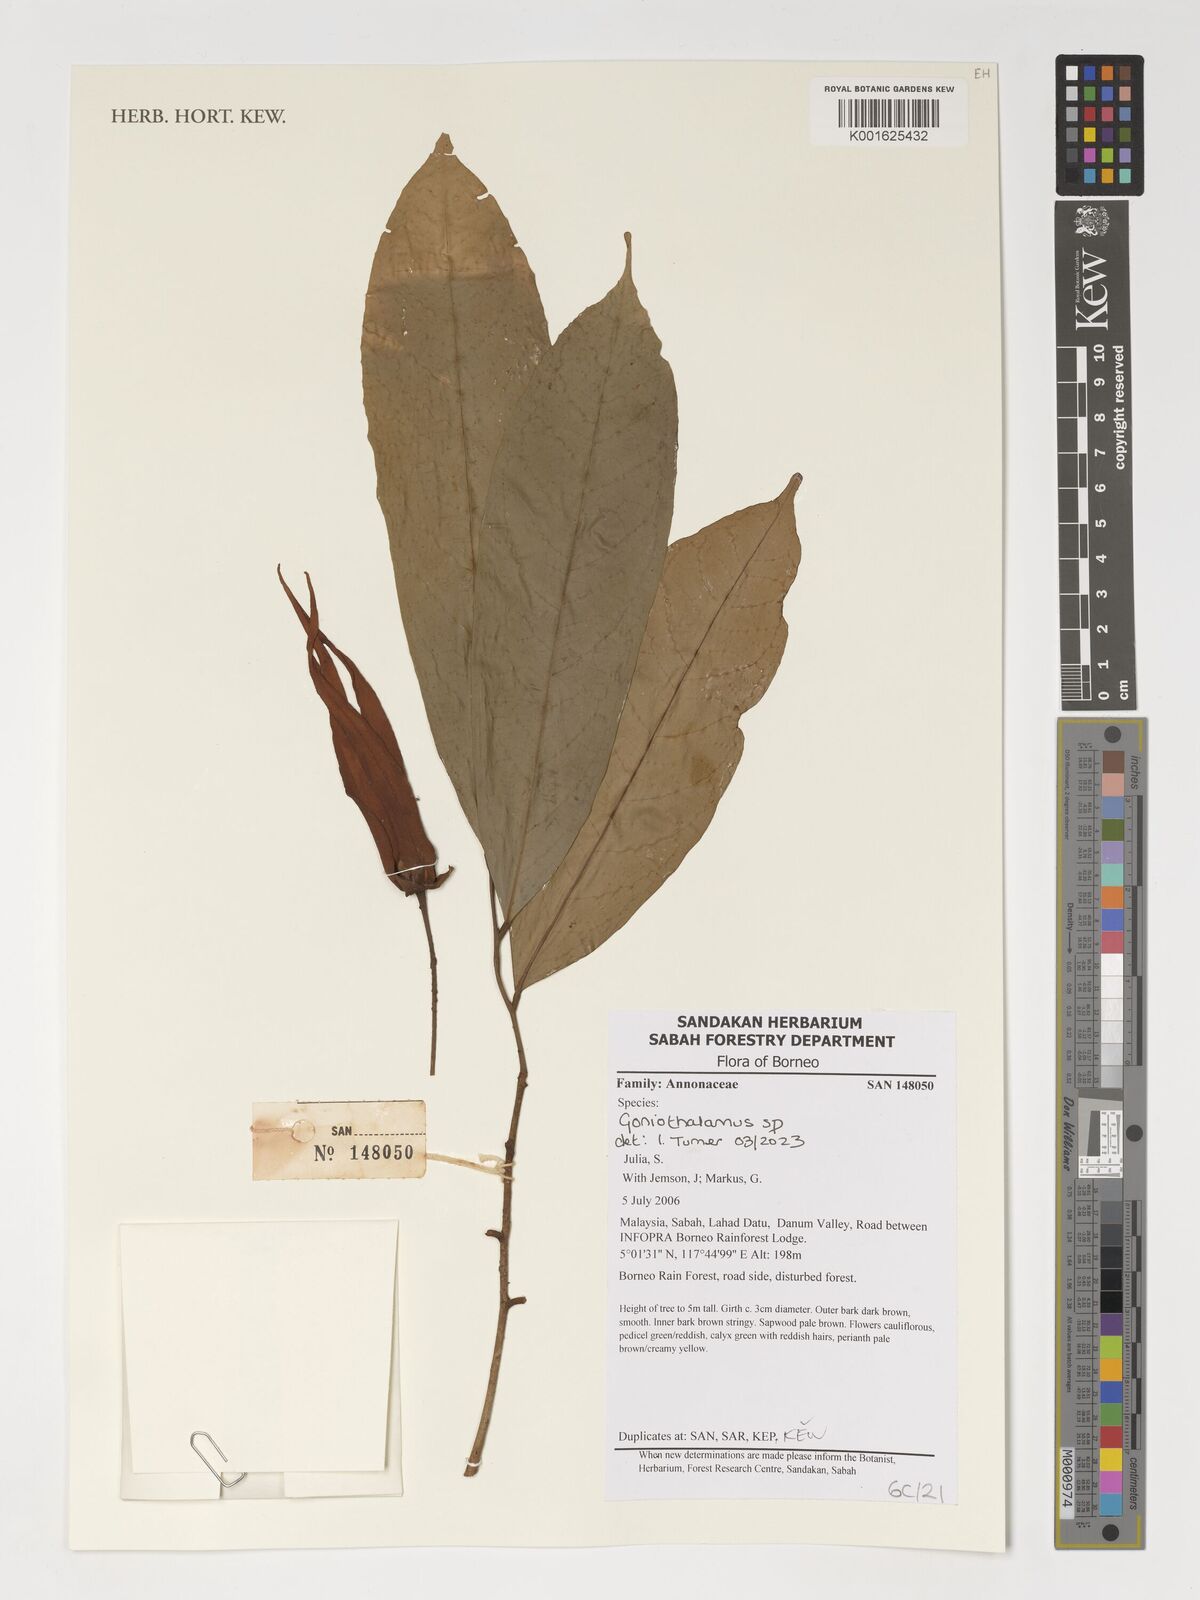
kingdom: Plantae
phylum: Tracheophyta
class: Magnoliopsida
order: Magnoliales
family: Annonaceae
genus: Goniothalamus
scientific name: Goniothalamus
